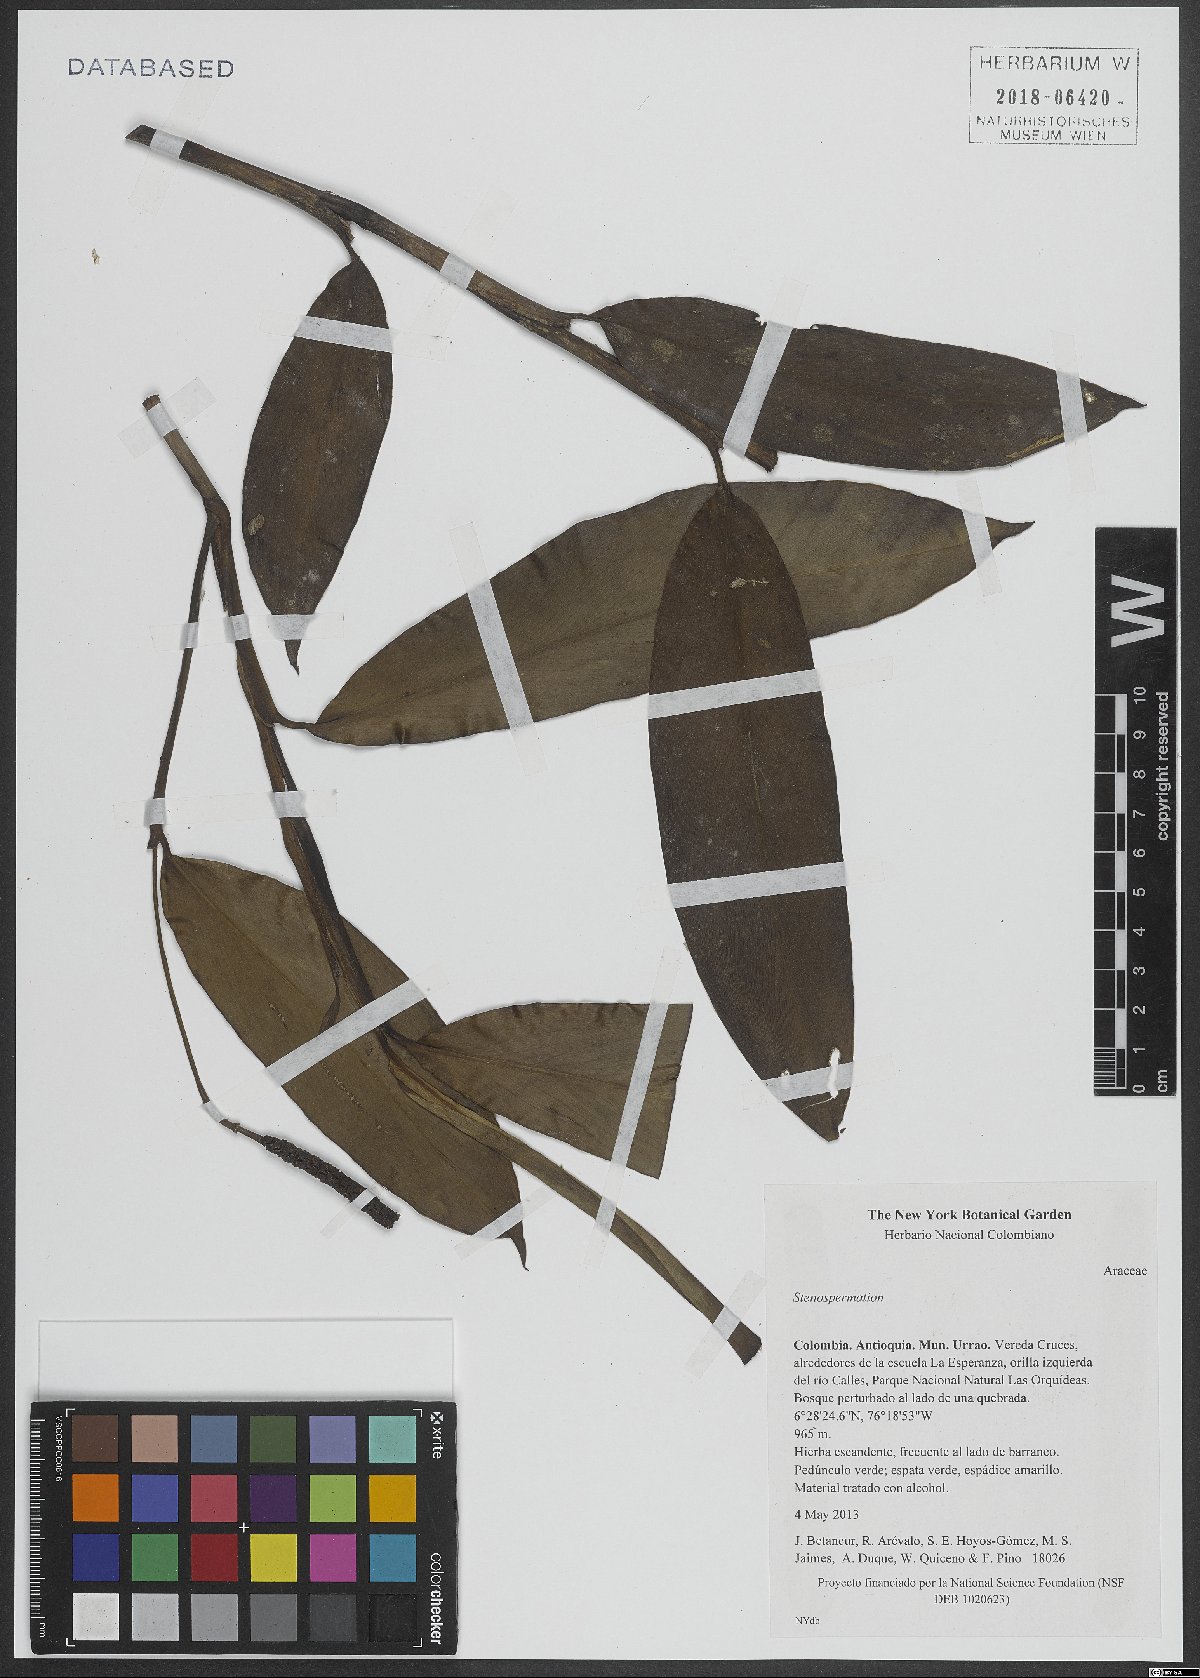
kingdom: Plantae
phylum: Tracheophyta
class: Liliopsida
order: Alismatales
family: Araceae
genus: Stenospermation
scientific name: Stenospermation
